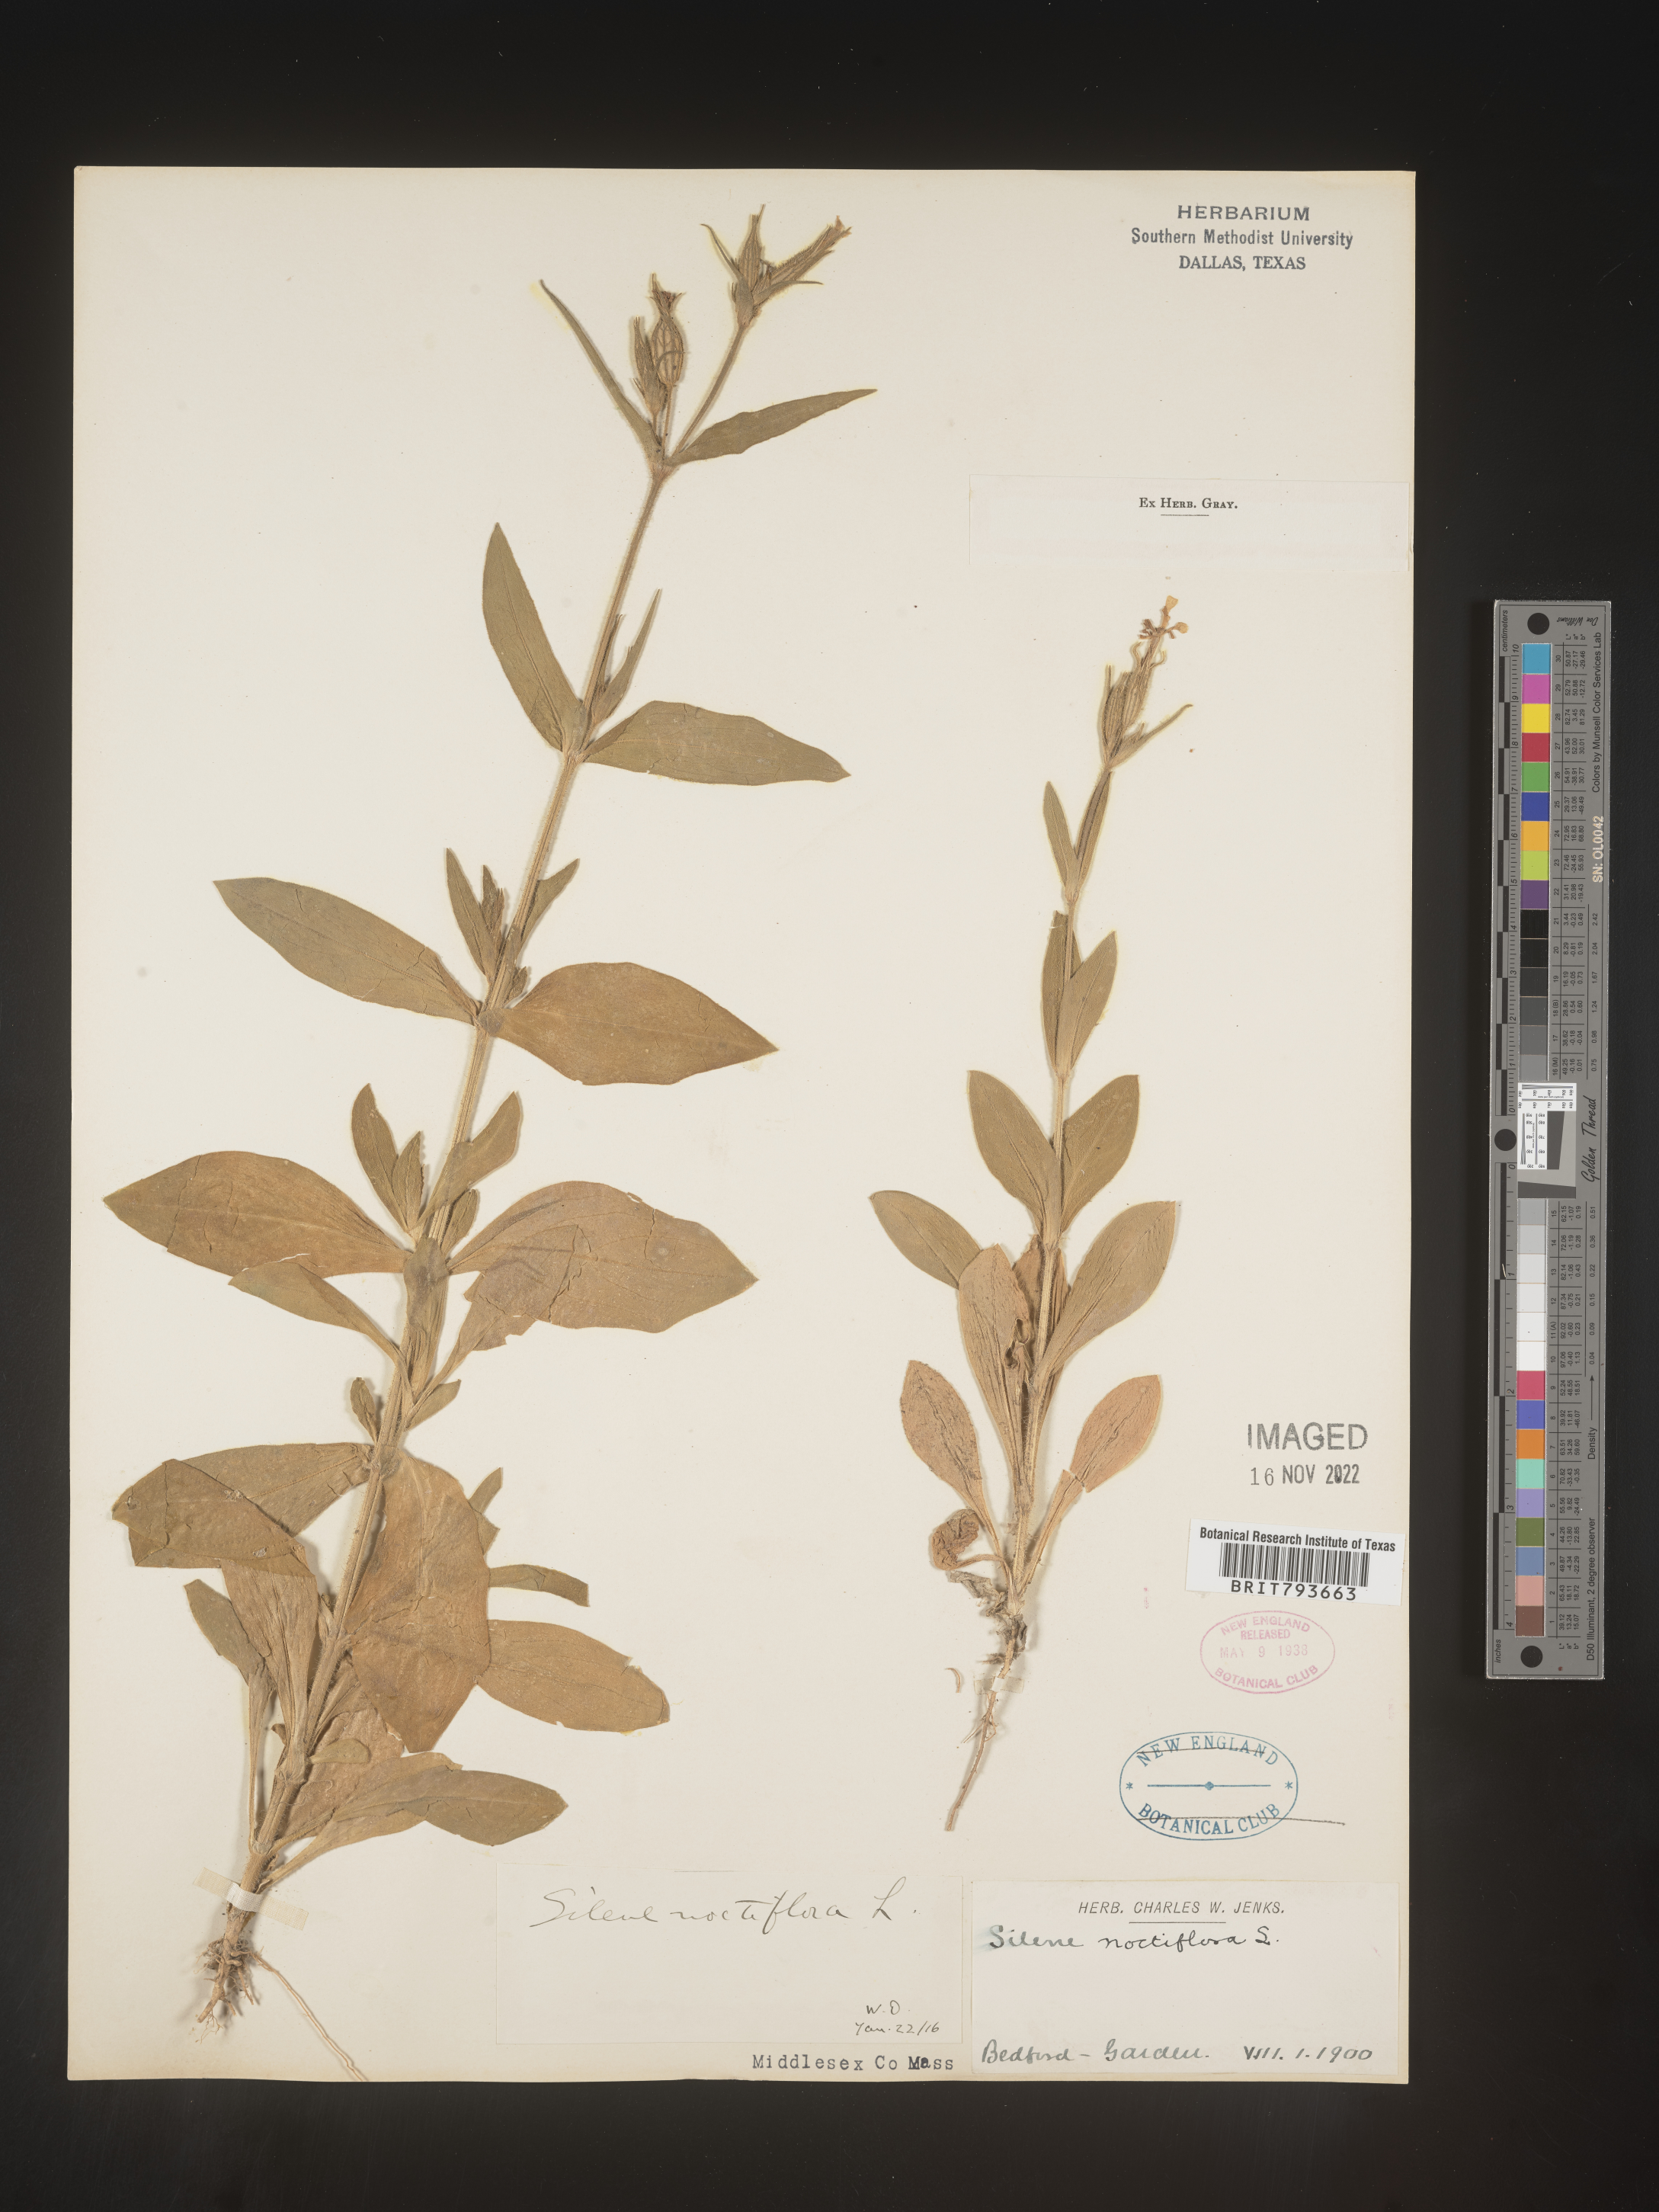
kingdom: Plantae
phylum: Tracheophyta
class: Magnoliopsida
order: Caryophyllales
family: Caryophyllaceae
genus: Silene
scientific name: Silene noctiflora
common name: Night-flowering catchfly
